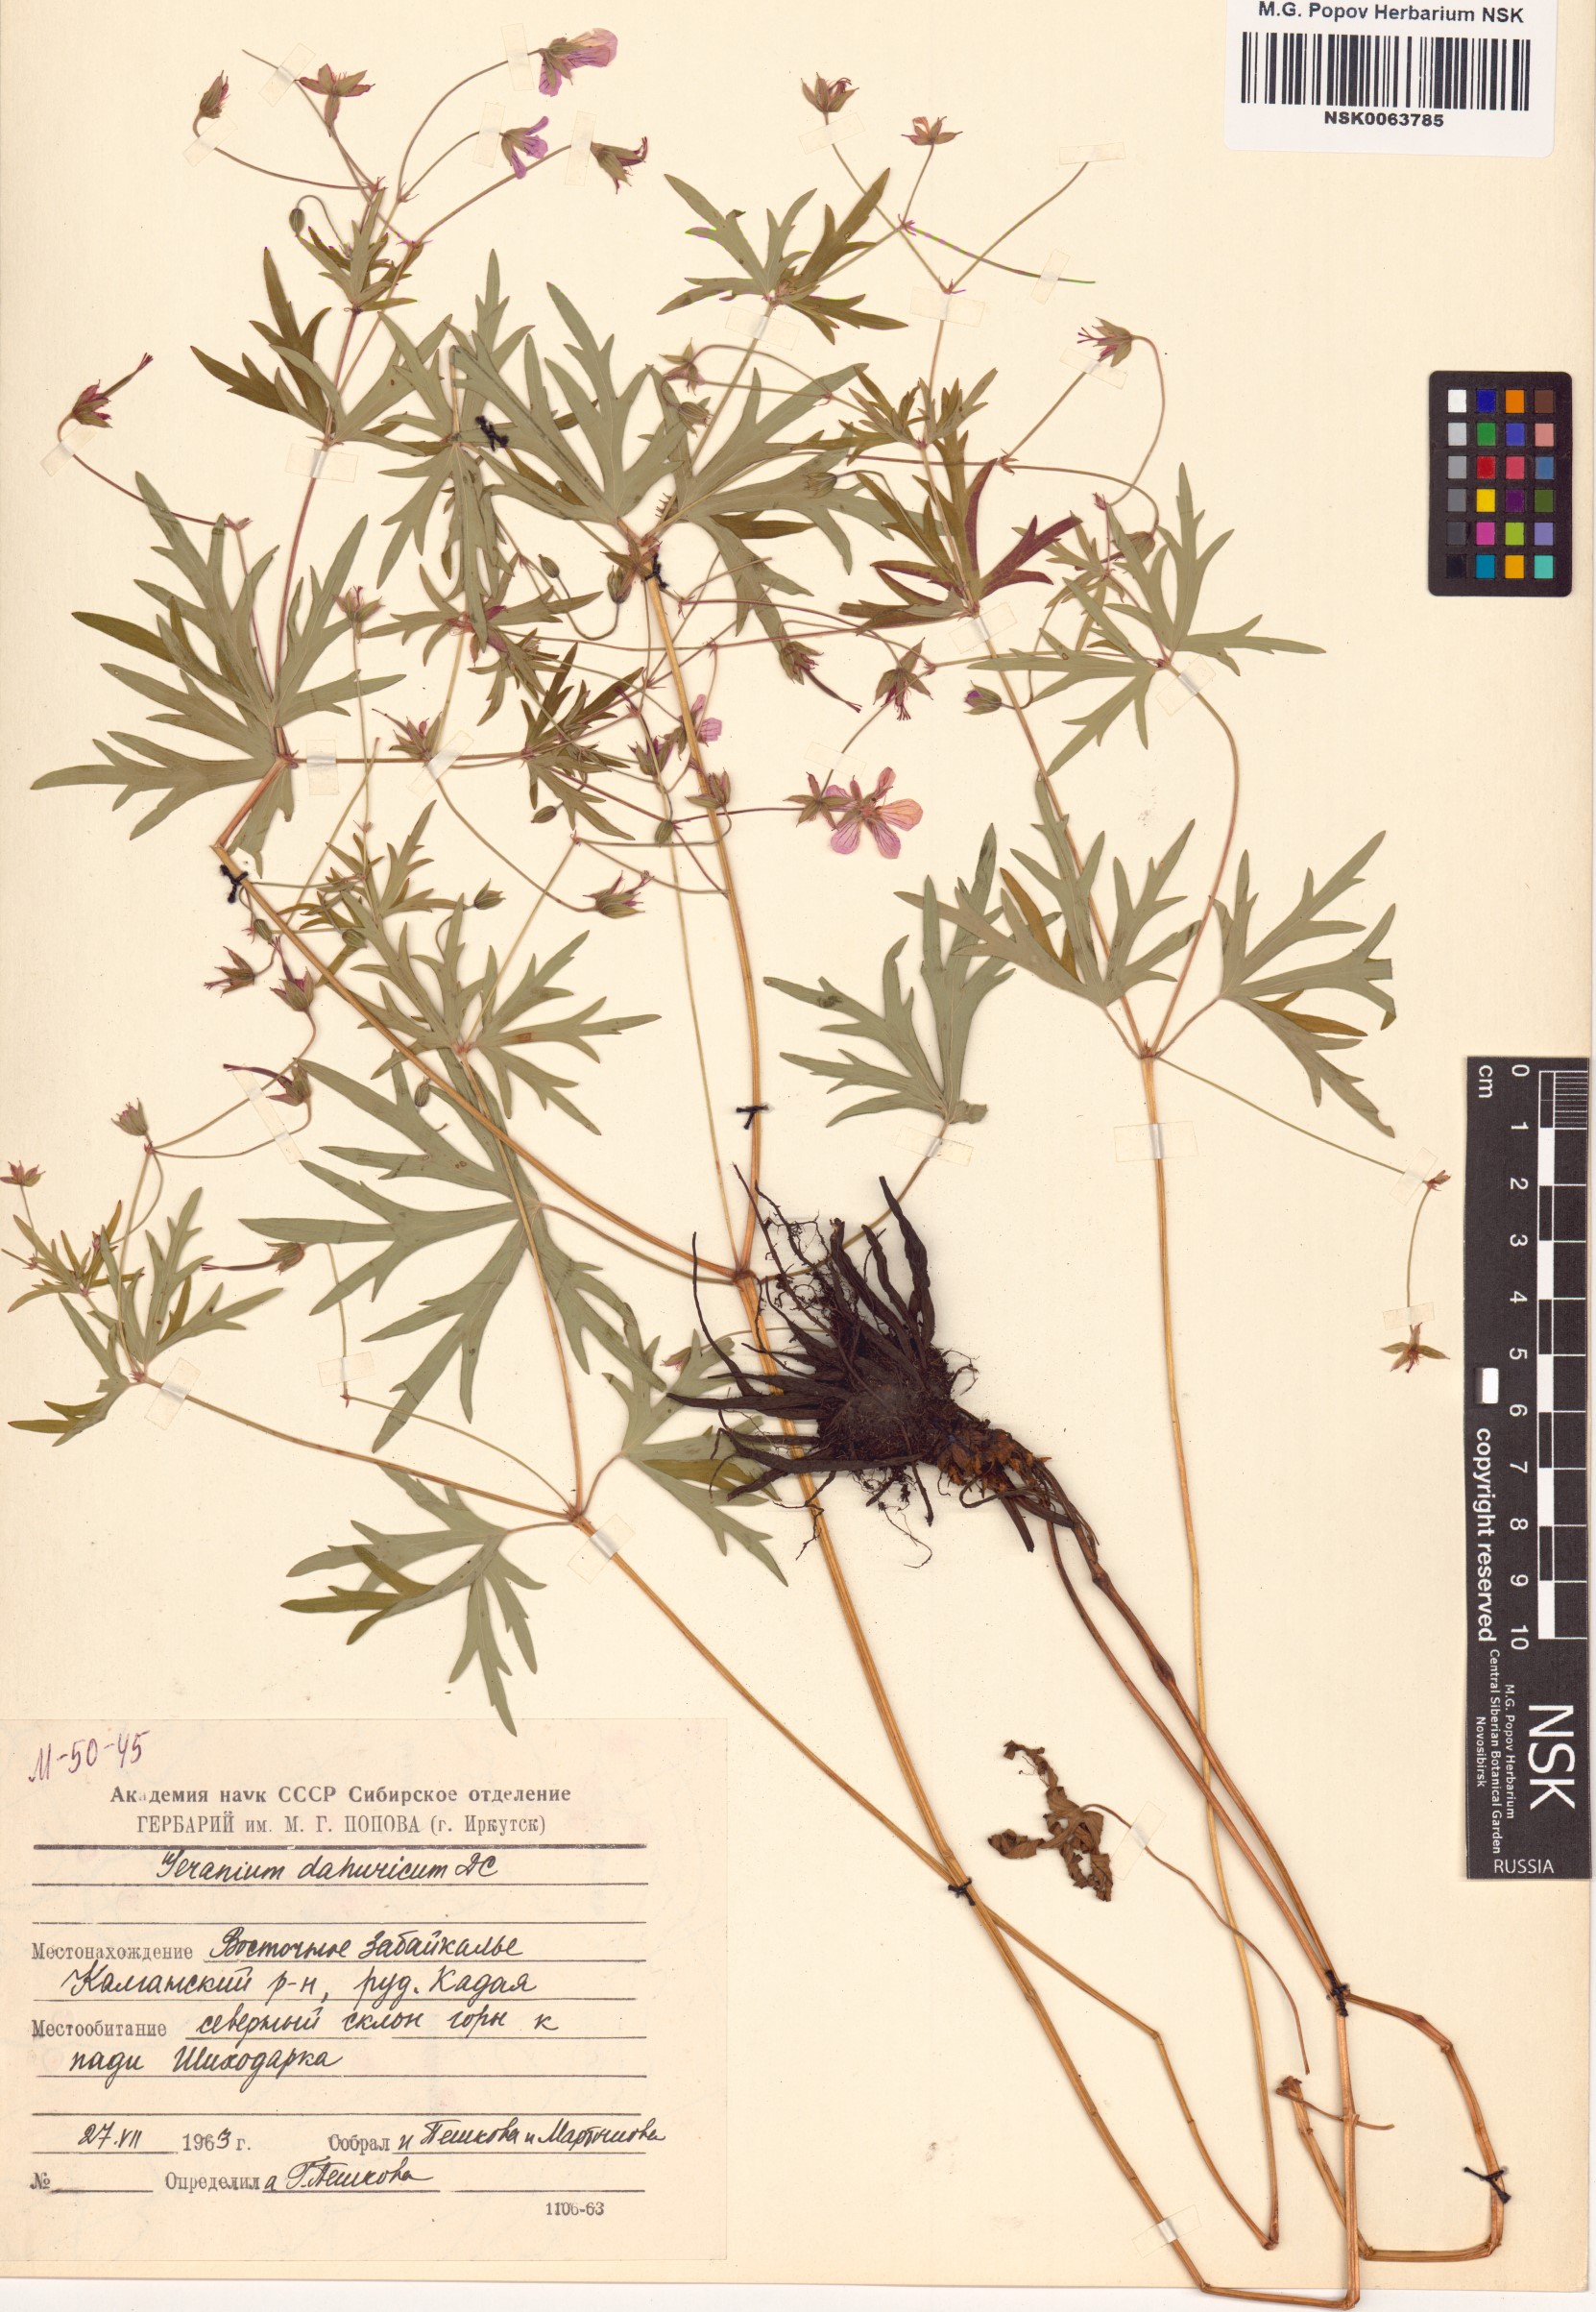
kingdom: Plantae
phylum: Tracheophyta
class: Magnoliopsida
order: Geraniales
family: Geraniaceae
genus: Geranium
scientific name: Geranium dahuricum
